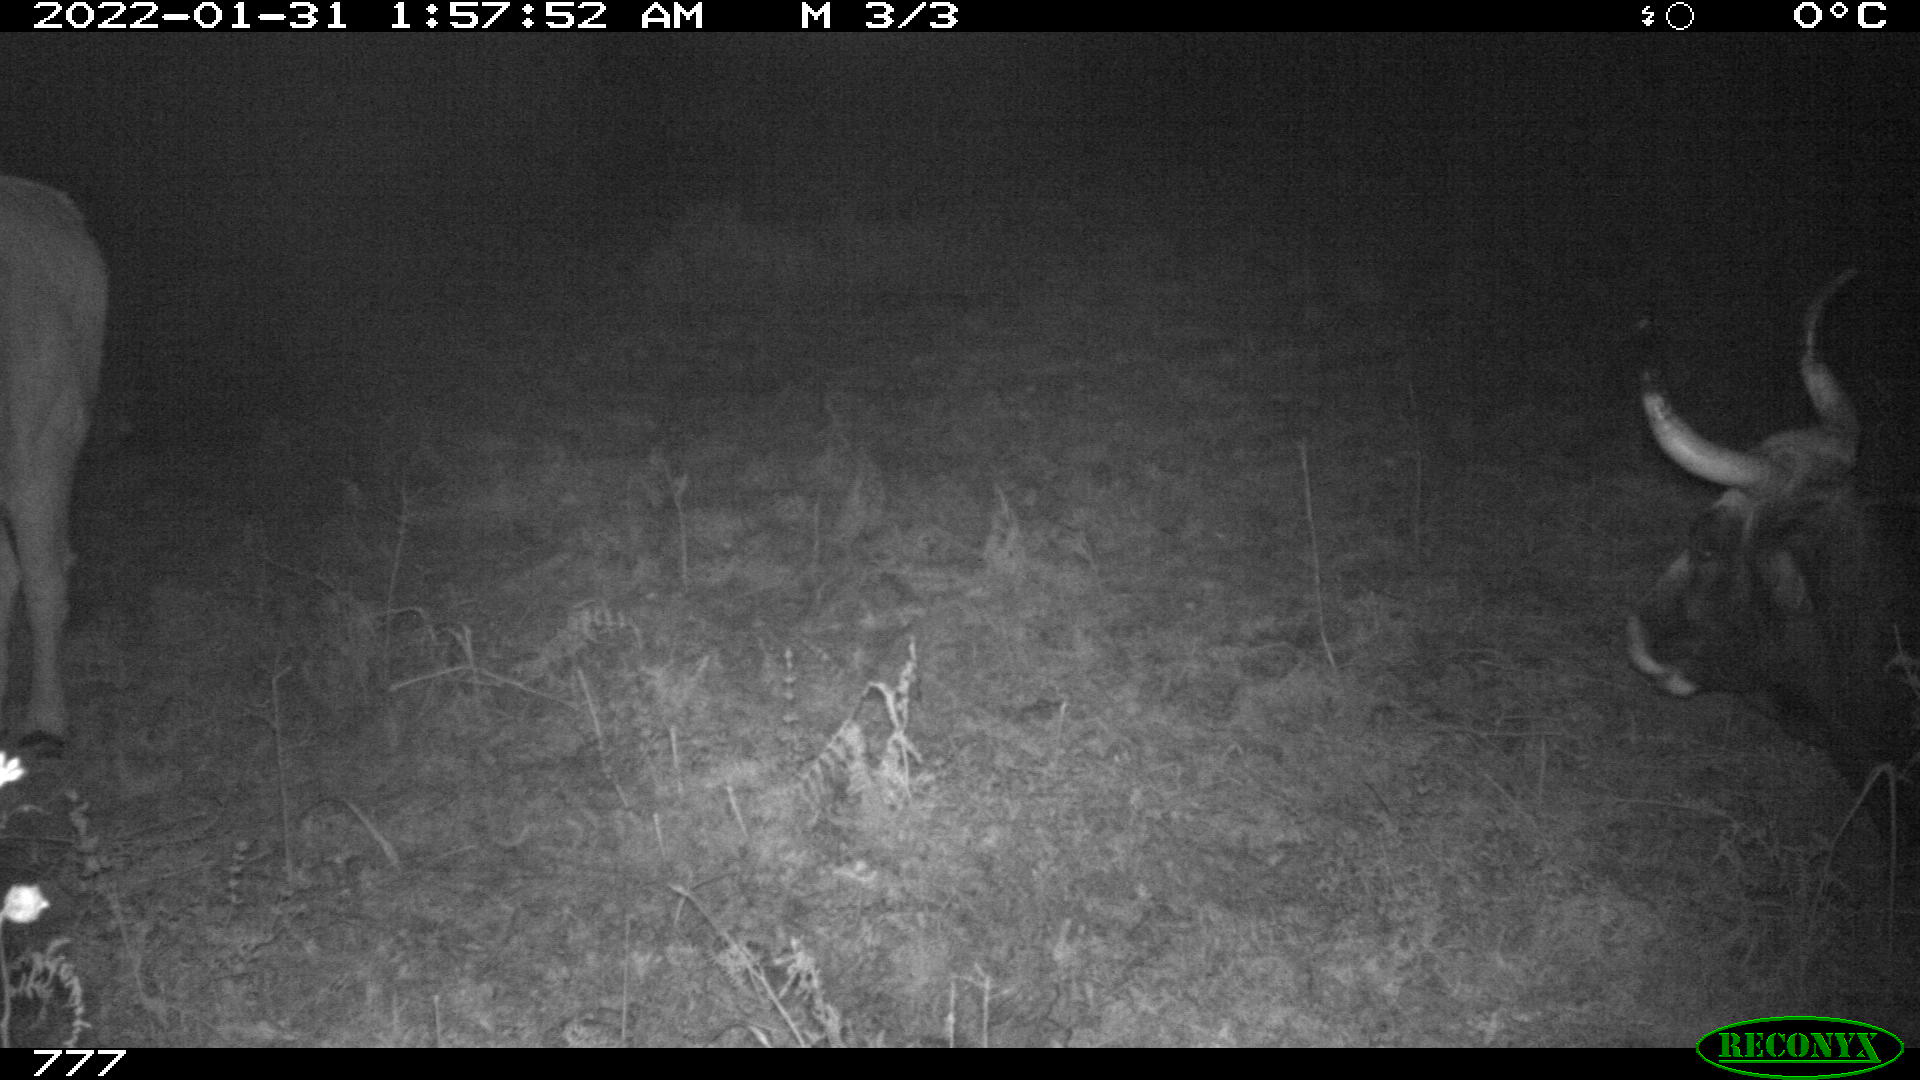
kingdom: Animalia
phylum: Chordata
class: Mammalia
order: Artiodactyla
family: Bovidae
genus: Bos
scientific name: Bos taurus
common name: Domesticated cattle
